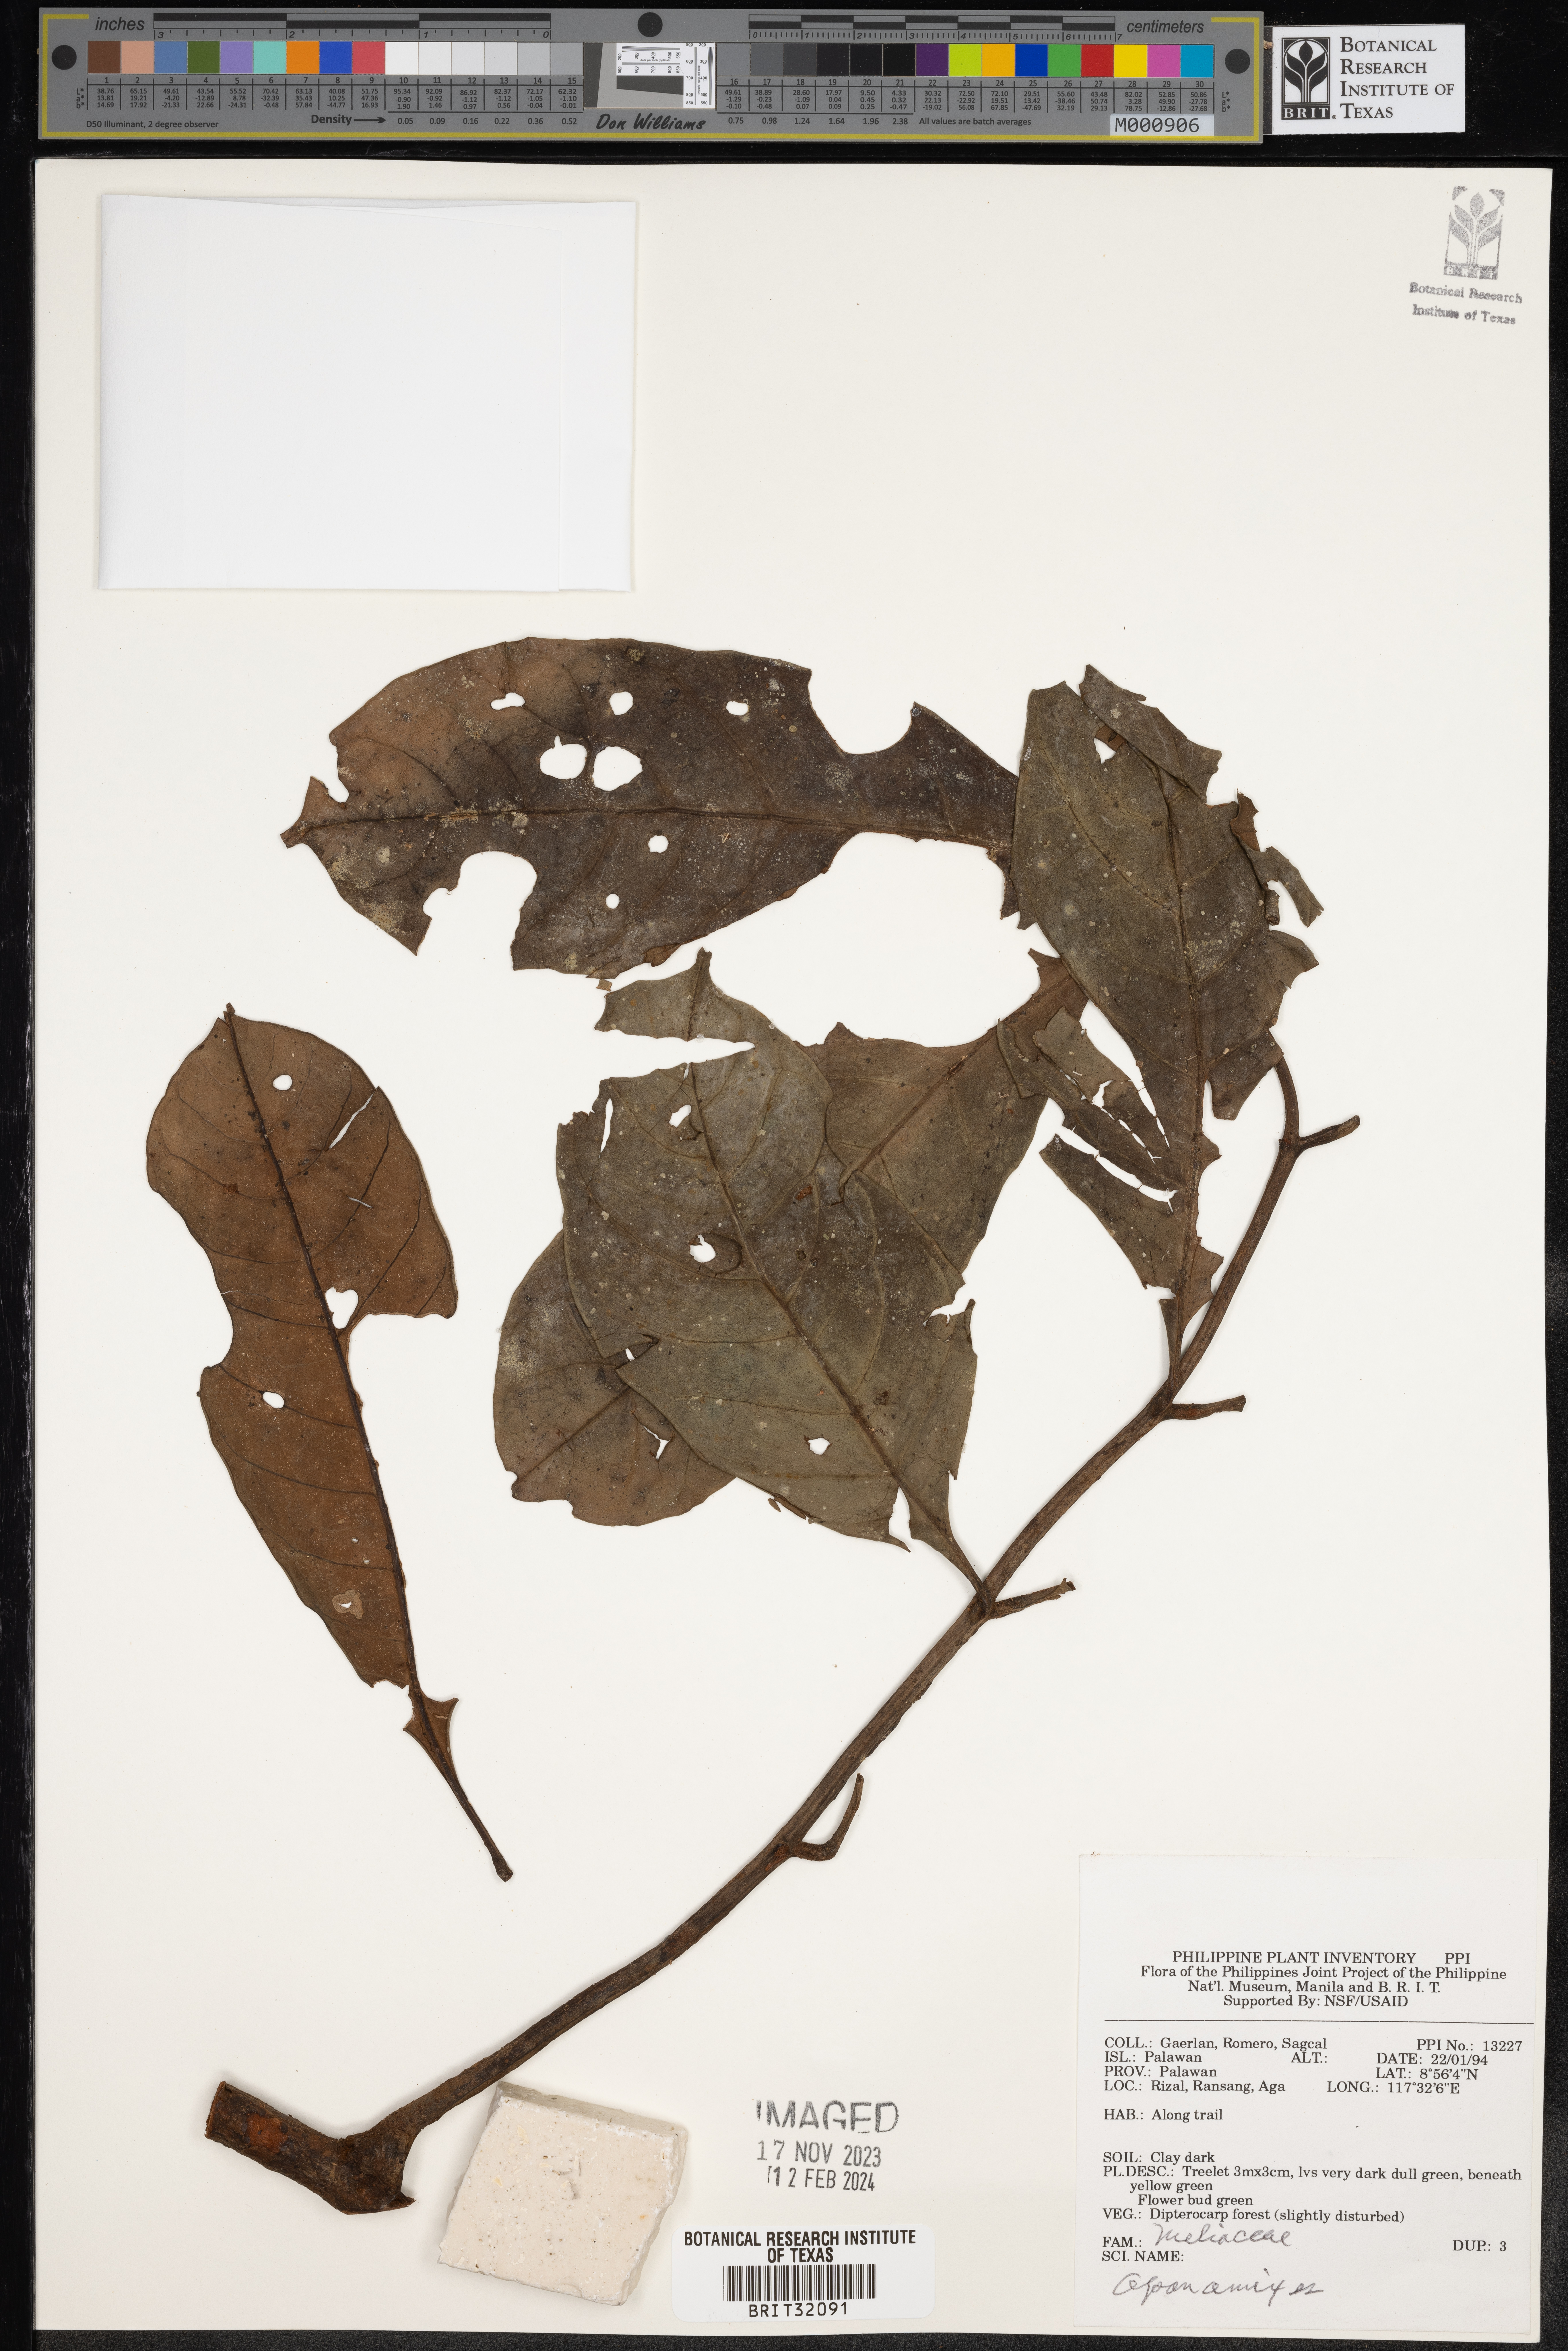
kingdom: Plantae
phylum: Tracheophyta
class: Magnoliopsida
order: Sapindales
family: Meliaceae
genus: Aphanamixis
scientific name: Aphanamixis
